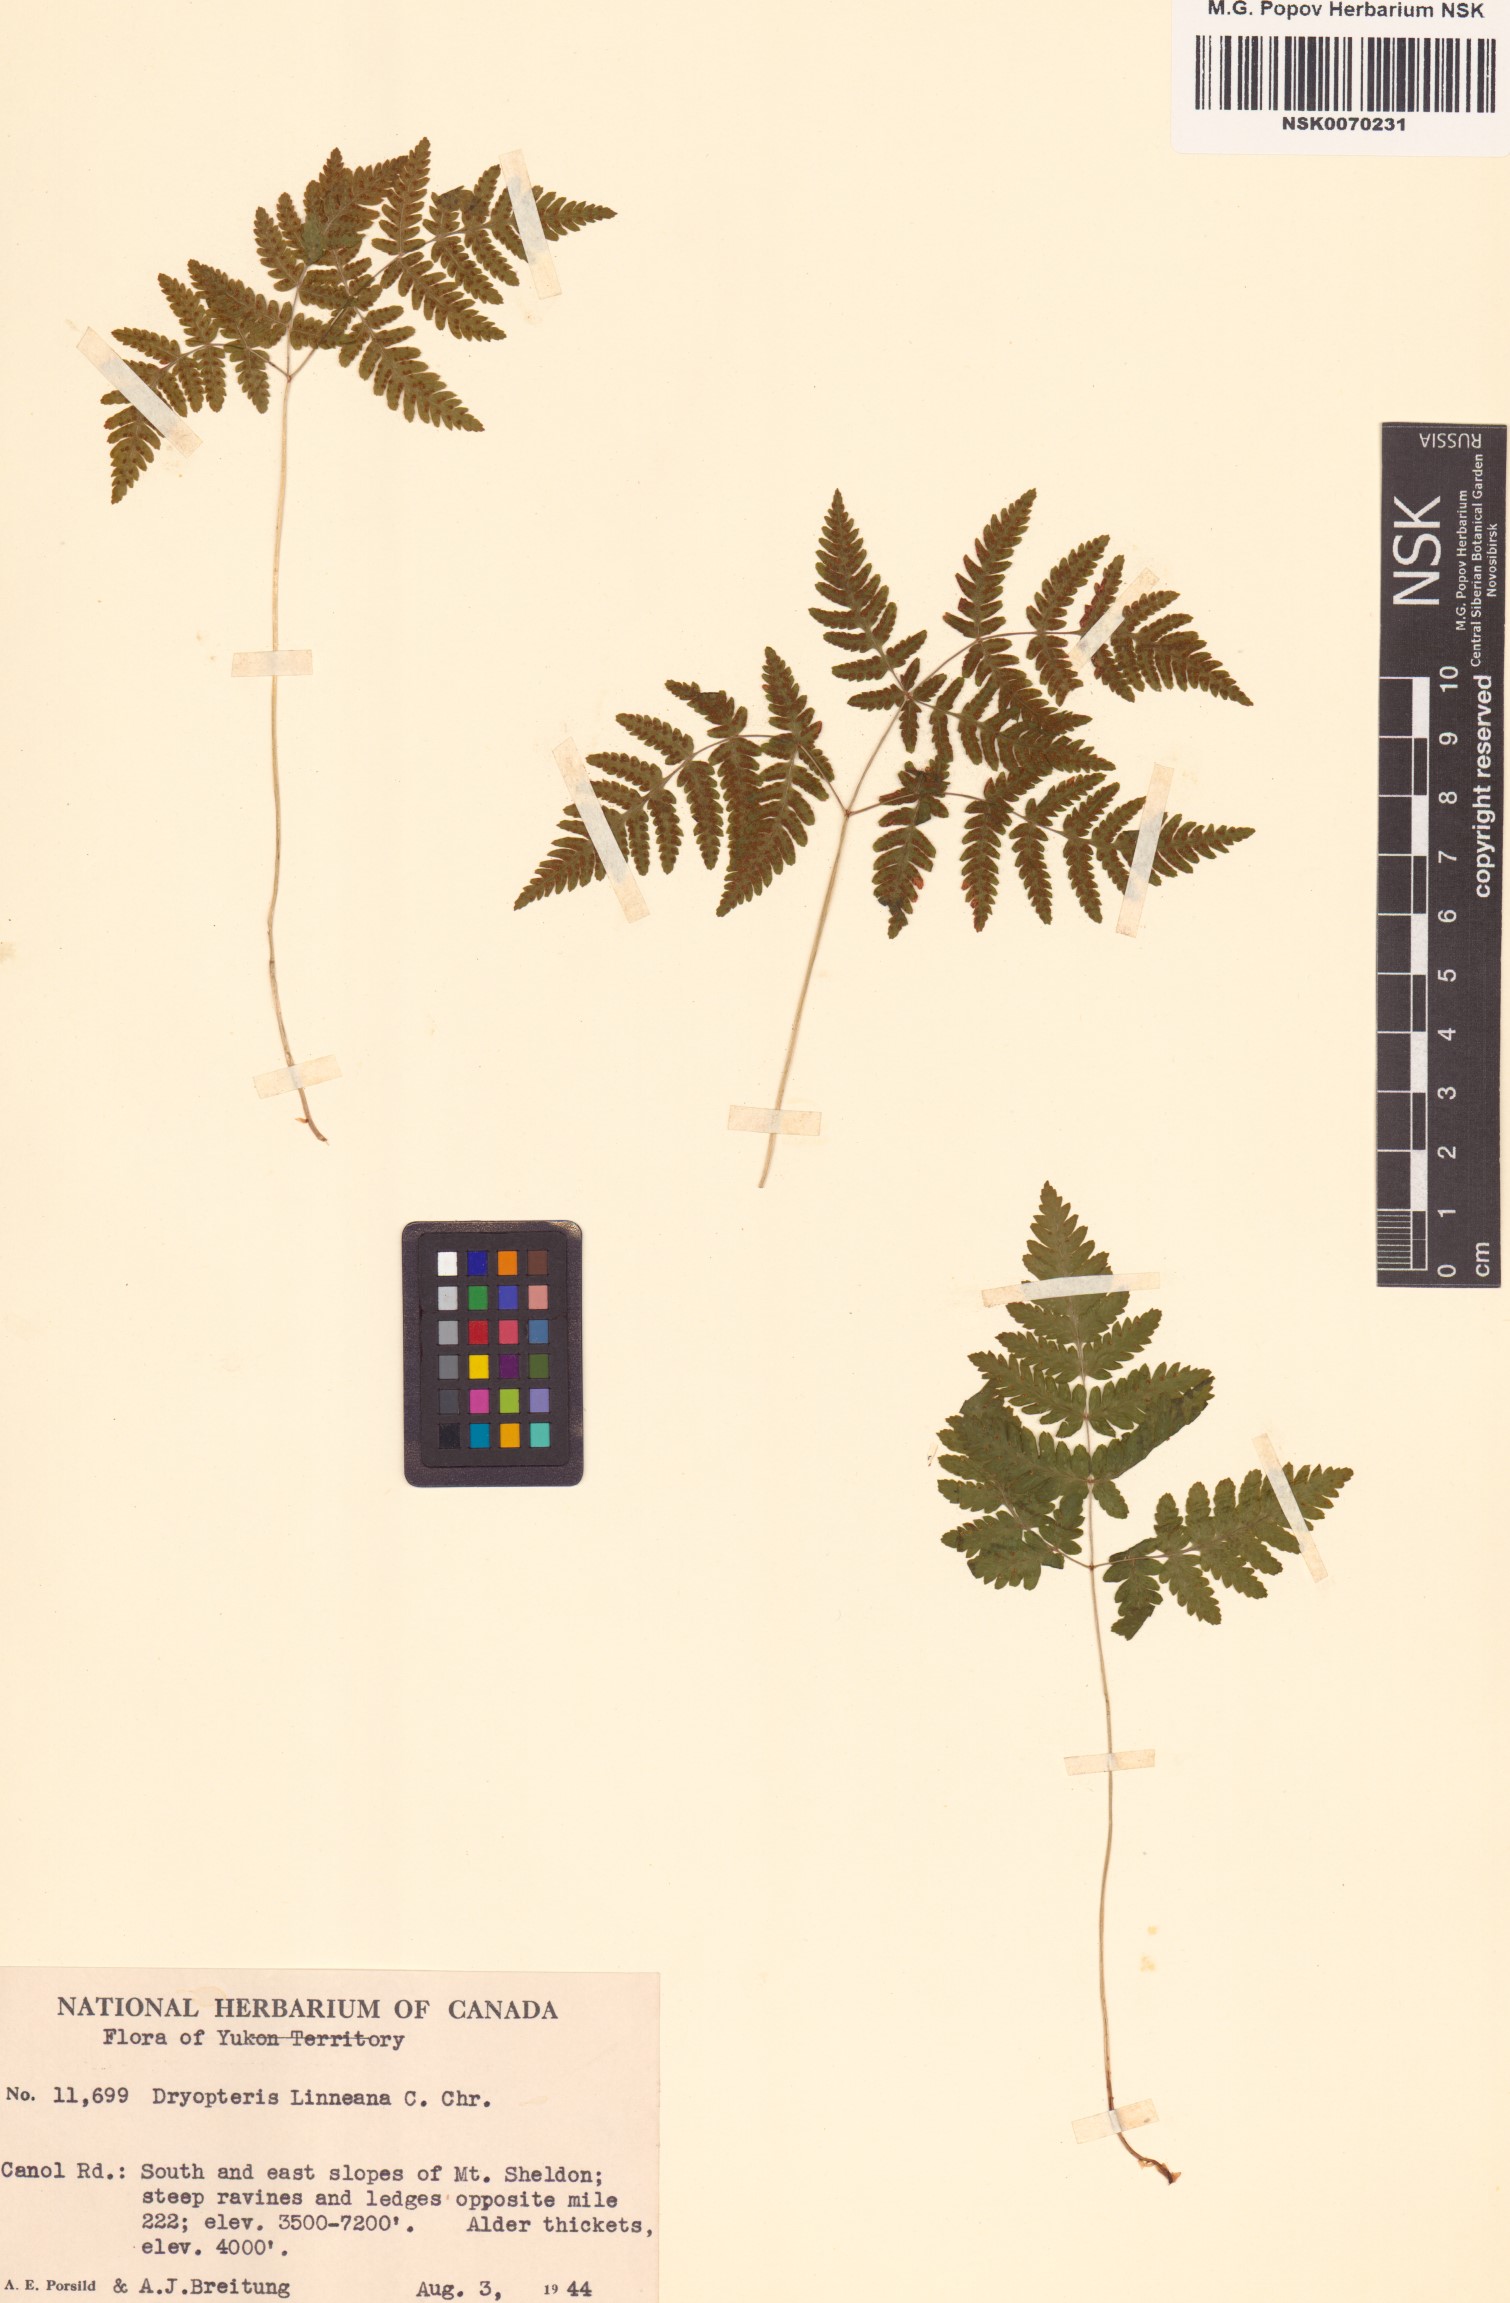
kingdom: Plantae
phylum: Tracheophyta
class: Polypodiopsida
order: Polypodiales
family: Cystopteridaceae
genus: Gymnocarpium
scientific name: Gymnocarpium dryopteris
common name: Oak fern
